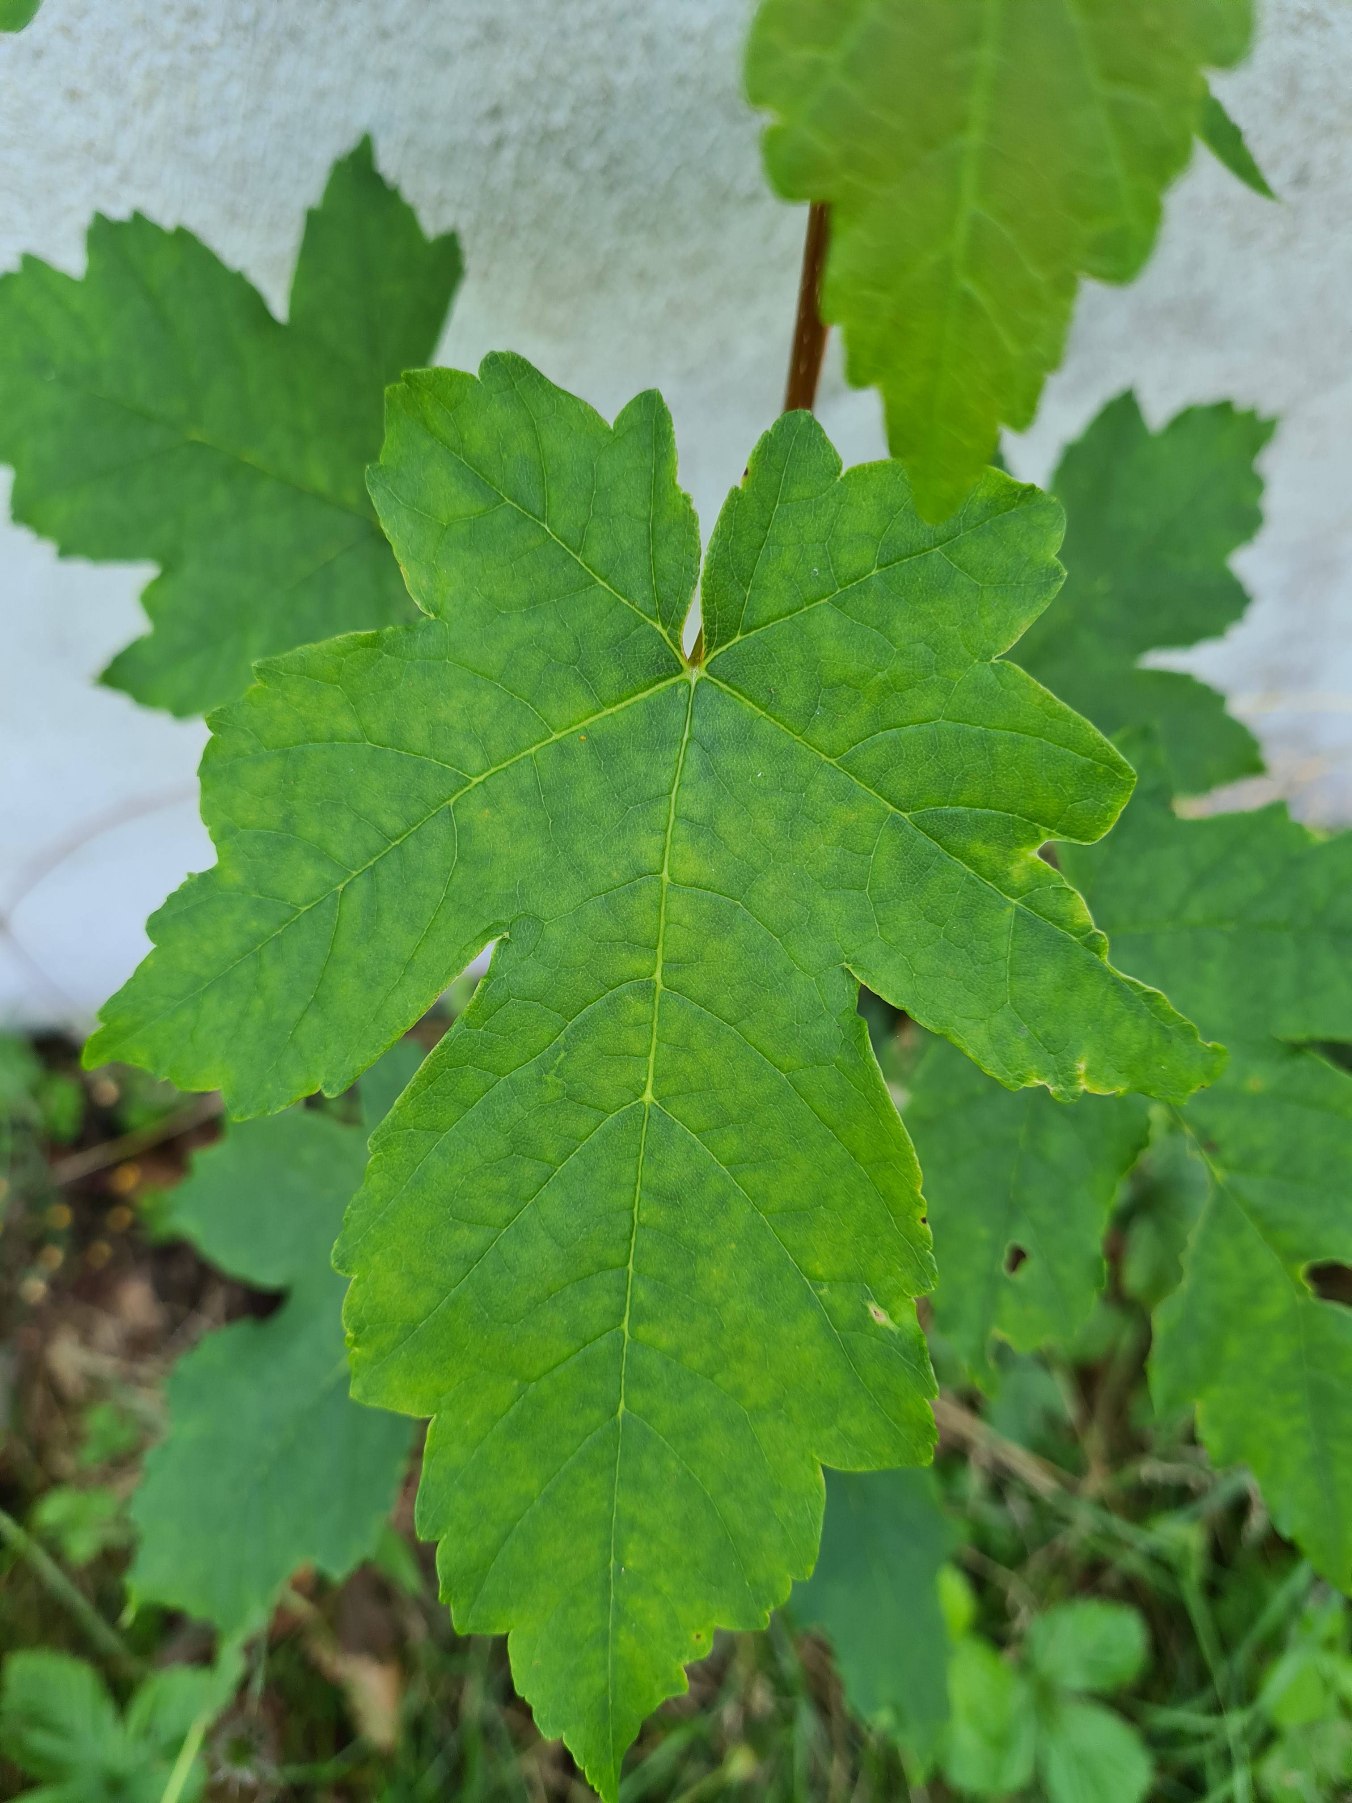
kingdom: Plantae
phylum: Tracheophyta
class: Magnoliopsida
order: Sapindales
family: Sapindaceae
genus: Acer
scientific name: Acer pseudoplatanus
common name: Ahorn
